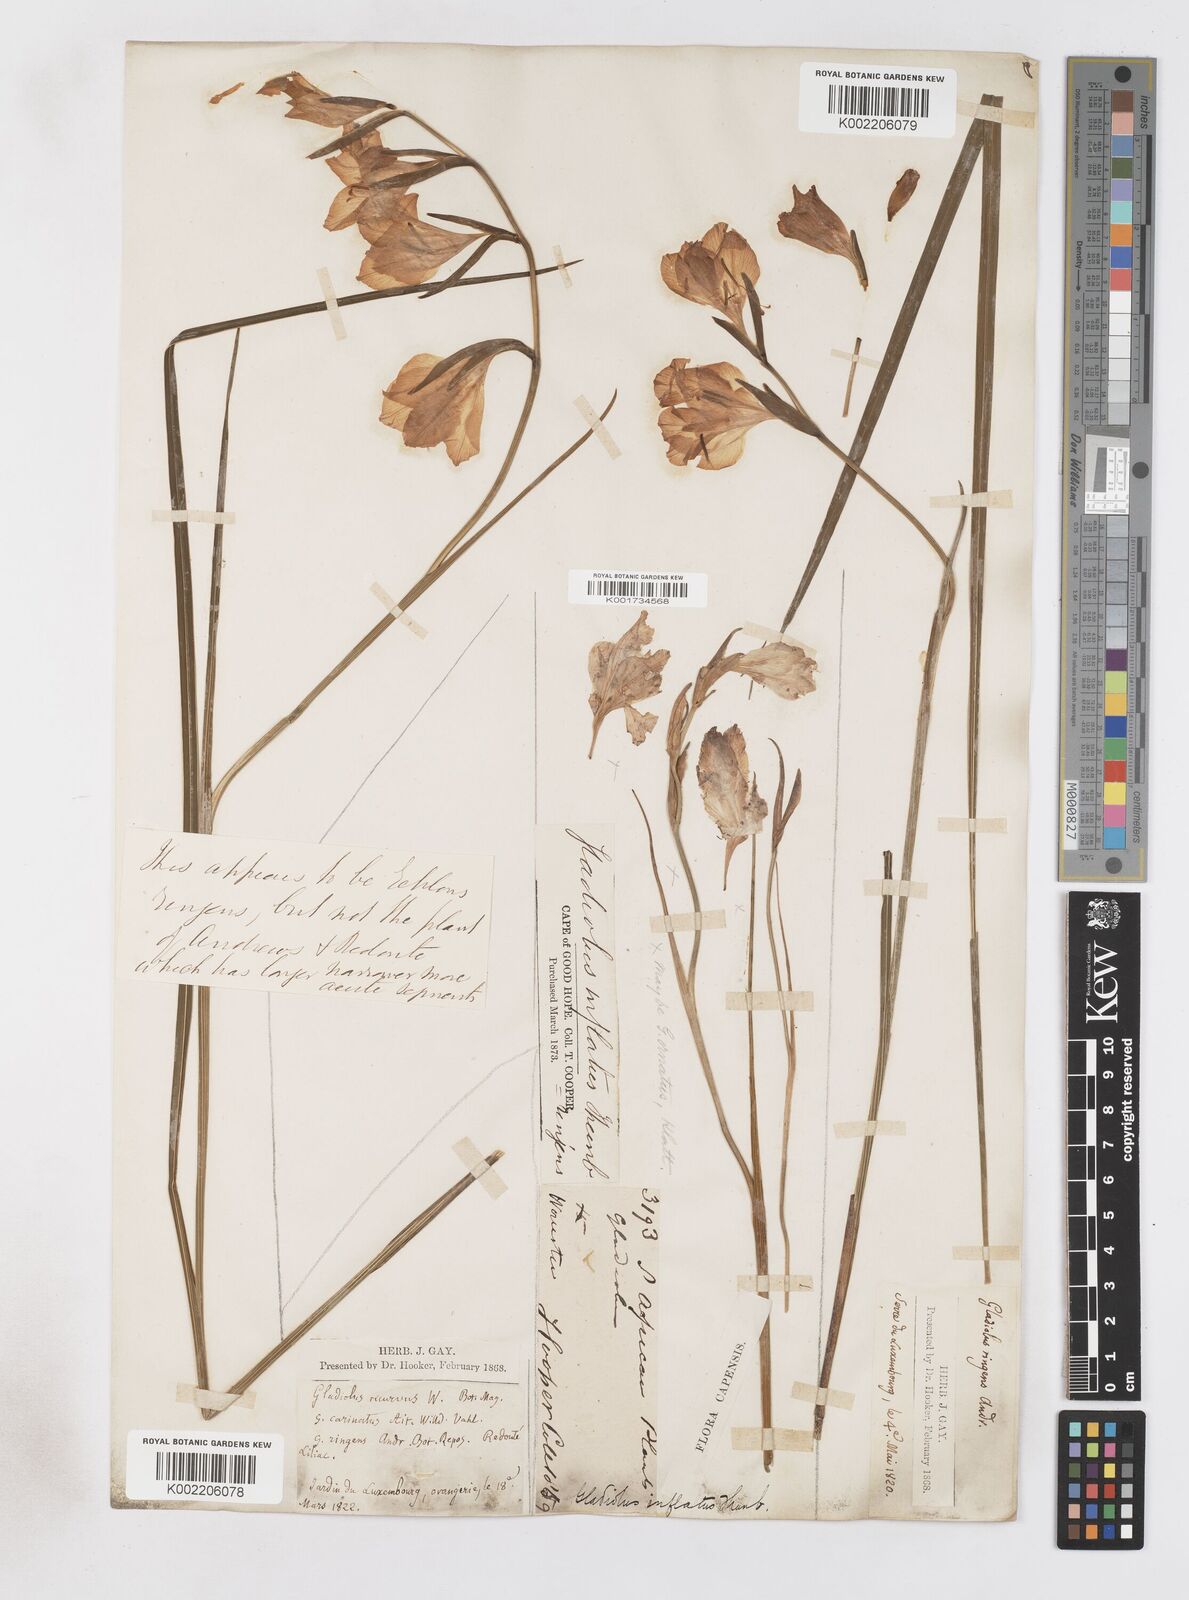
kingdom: Plantae
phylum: Tracheophyta
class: Liliopsida
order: Asparagales
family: Iridaceae
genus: Gladiolus
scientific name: Gladiolus carinatus
